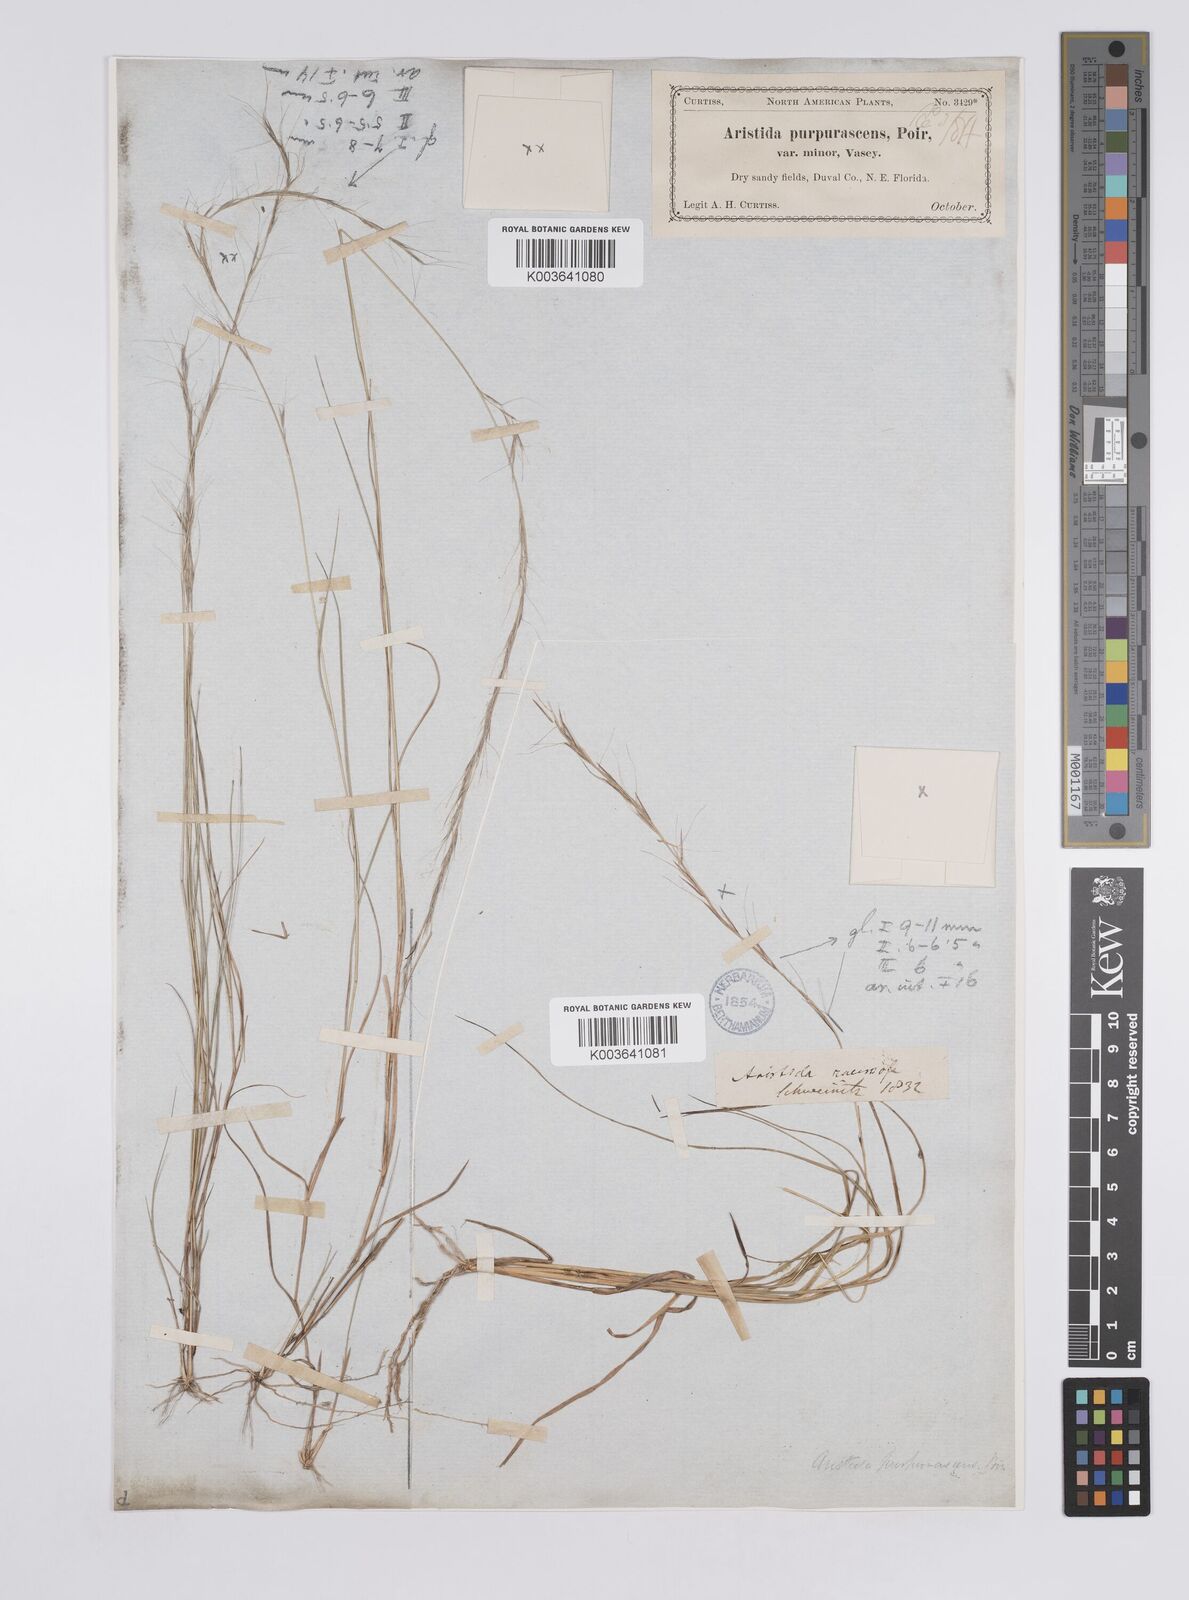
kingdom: Plantae
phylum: Tracheophyta
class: Liliopsida
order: Poales
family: Poaceae
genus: Aristida
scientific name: Aristida purpurascens
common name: Arrow-feather
